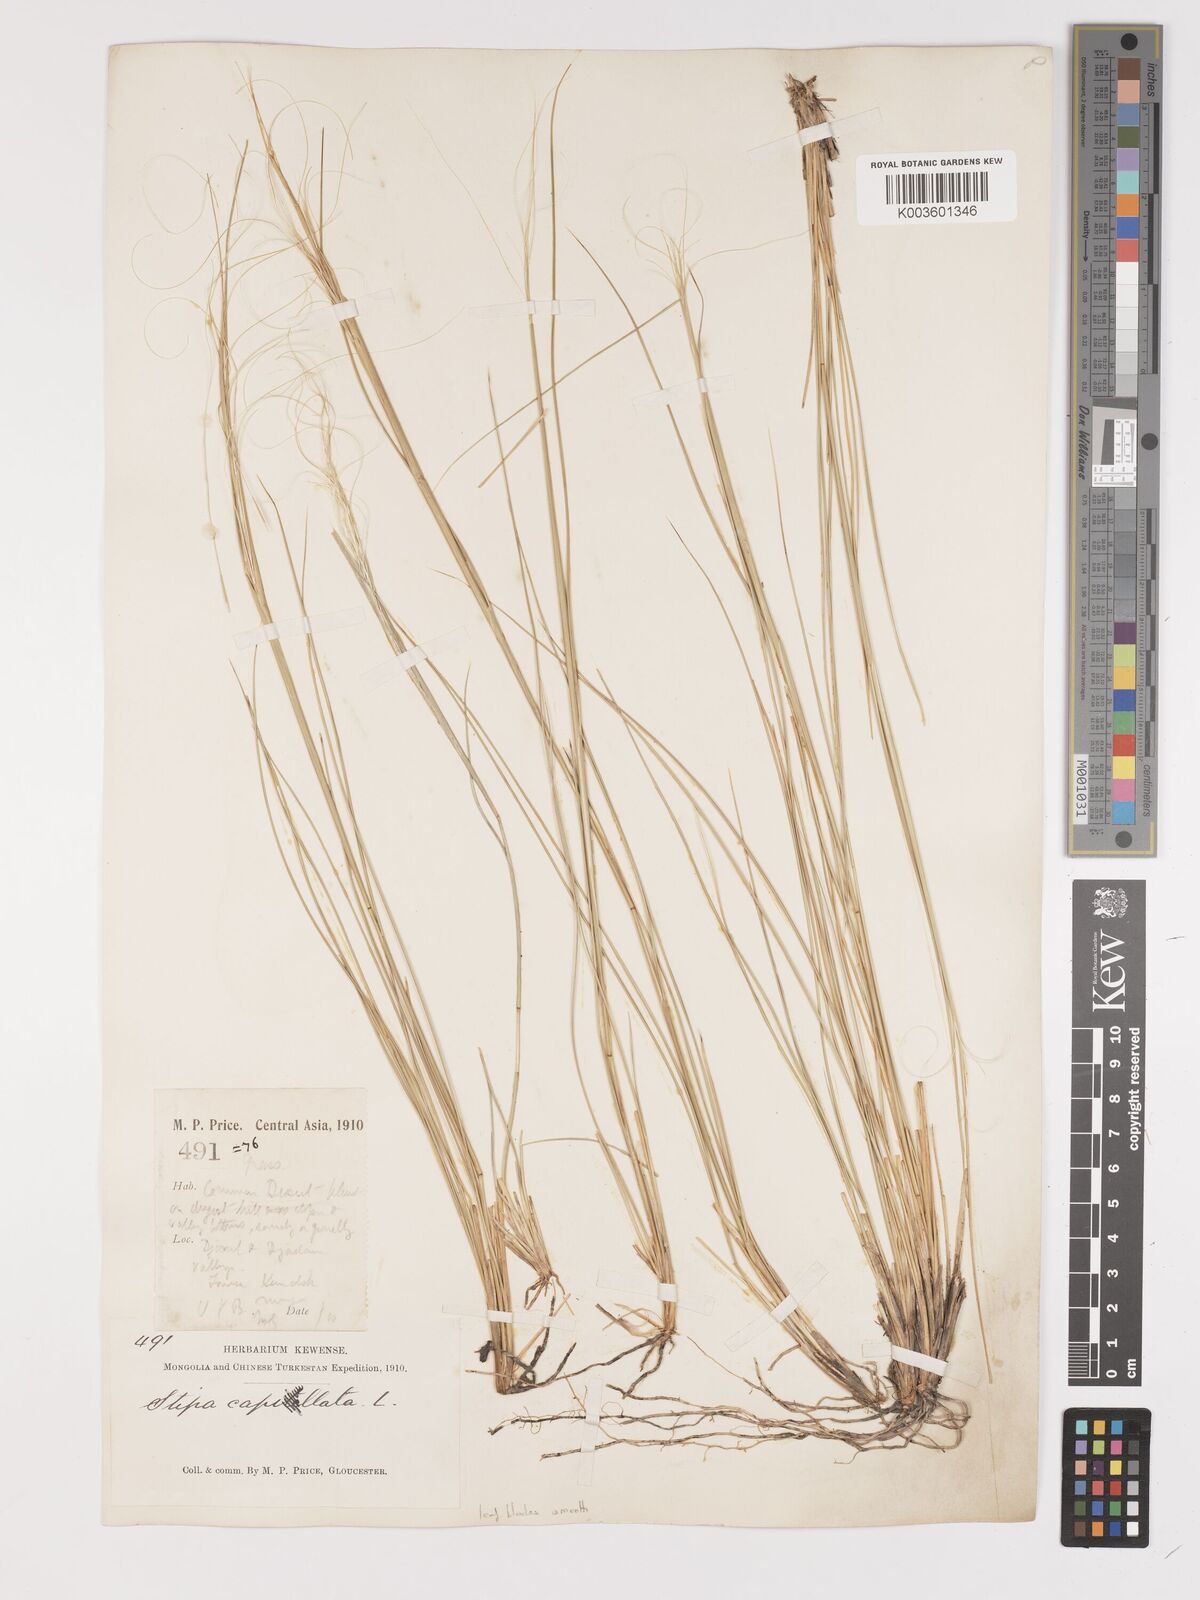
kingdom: Plantae
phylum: Tracheophyta
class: Liliopsida
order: Poales
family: Poaceae
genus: Stipa
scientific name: Stipa capillata
